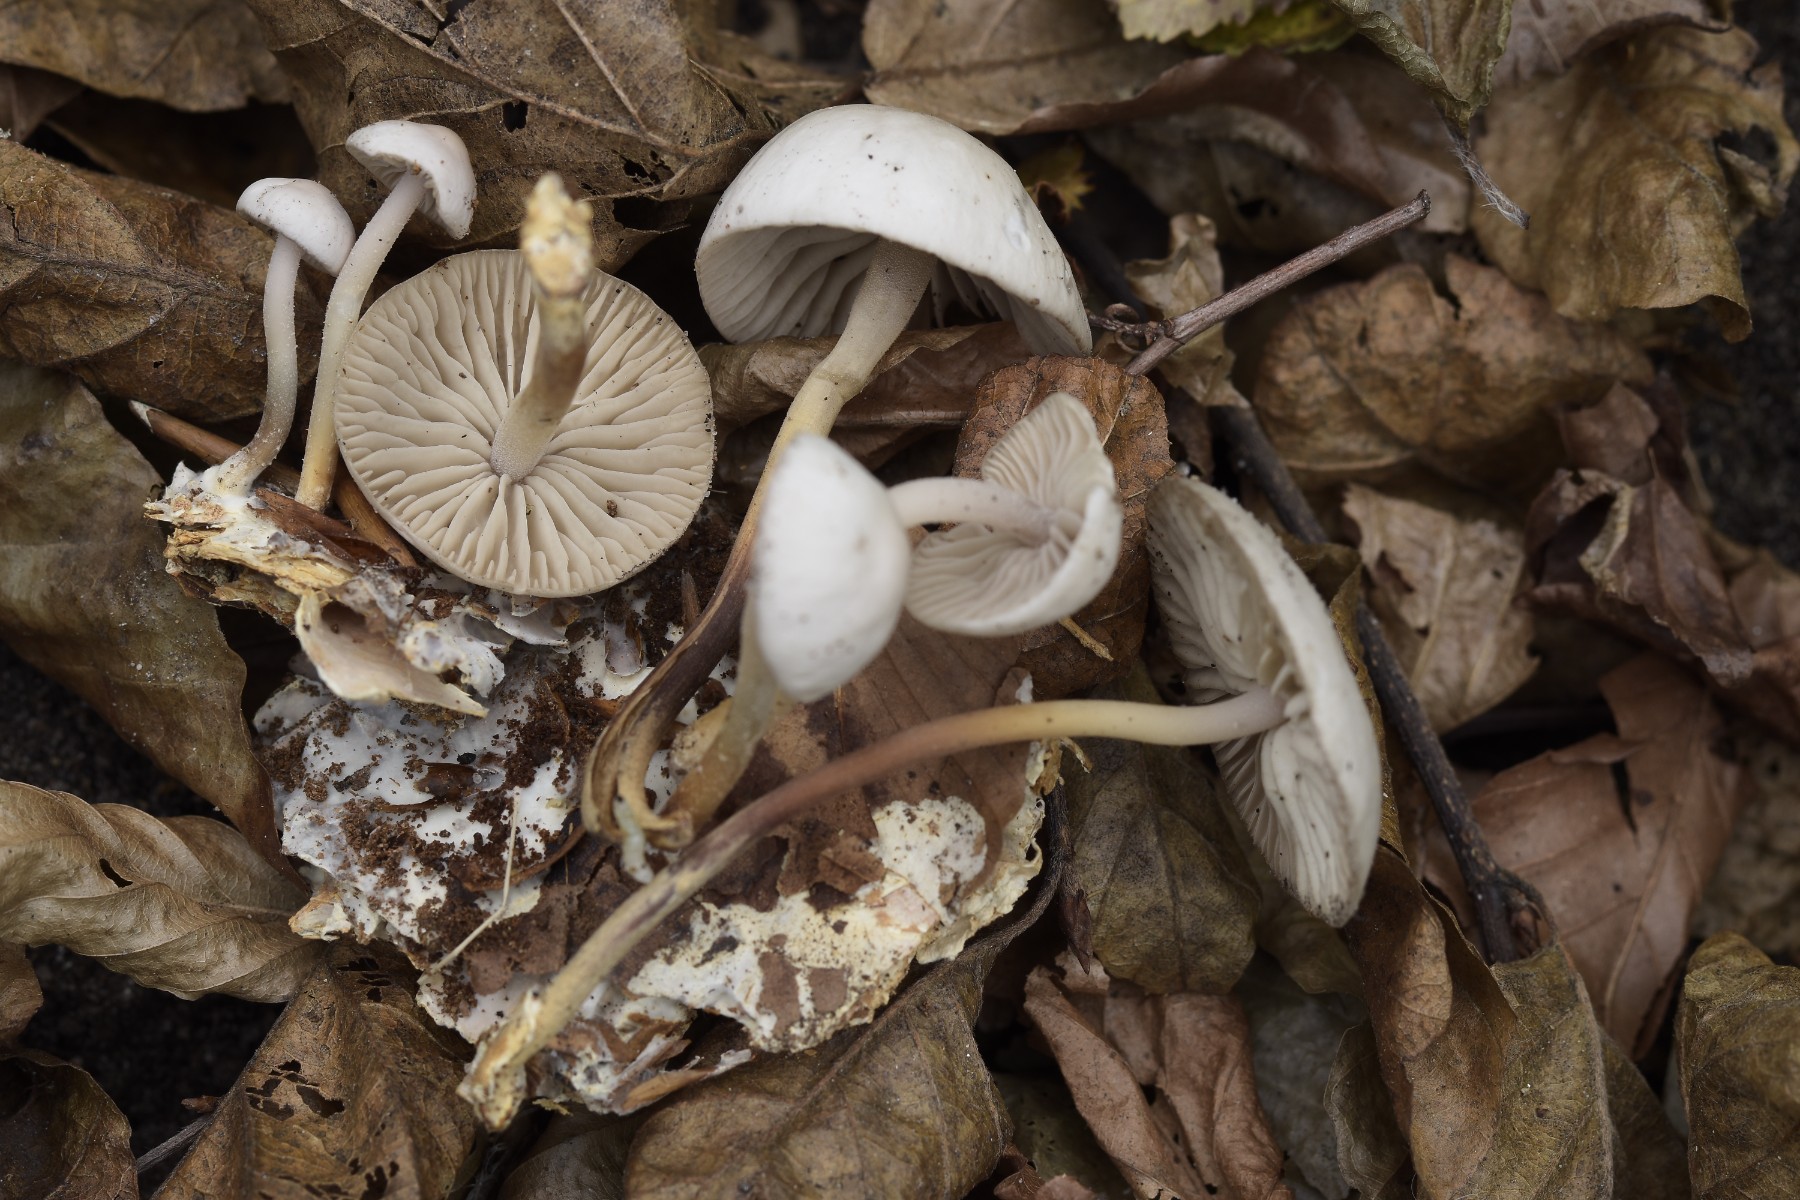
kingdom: Fungi
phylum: Basidiomycota
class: Agaricomycetes
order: Agaricales
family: Marasmiaceae
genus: Marasmius
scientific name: Marasmius wynneae
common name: hvælvet bruskhat
